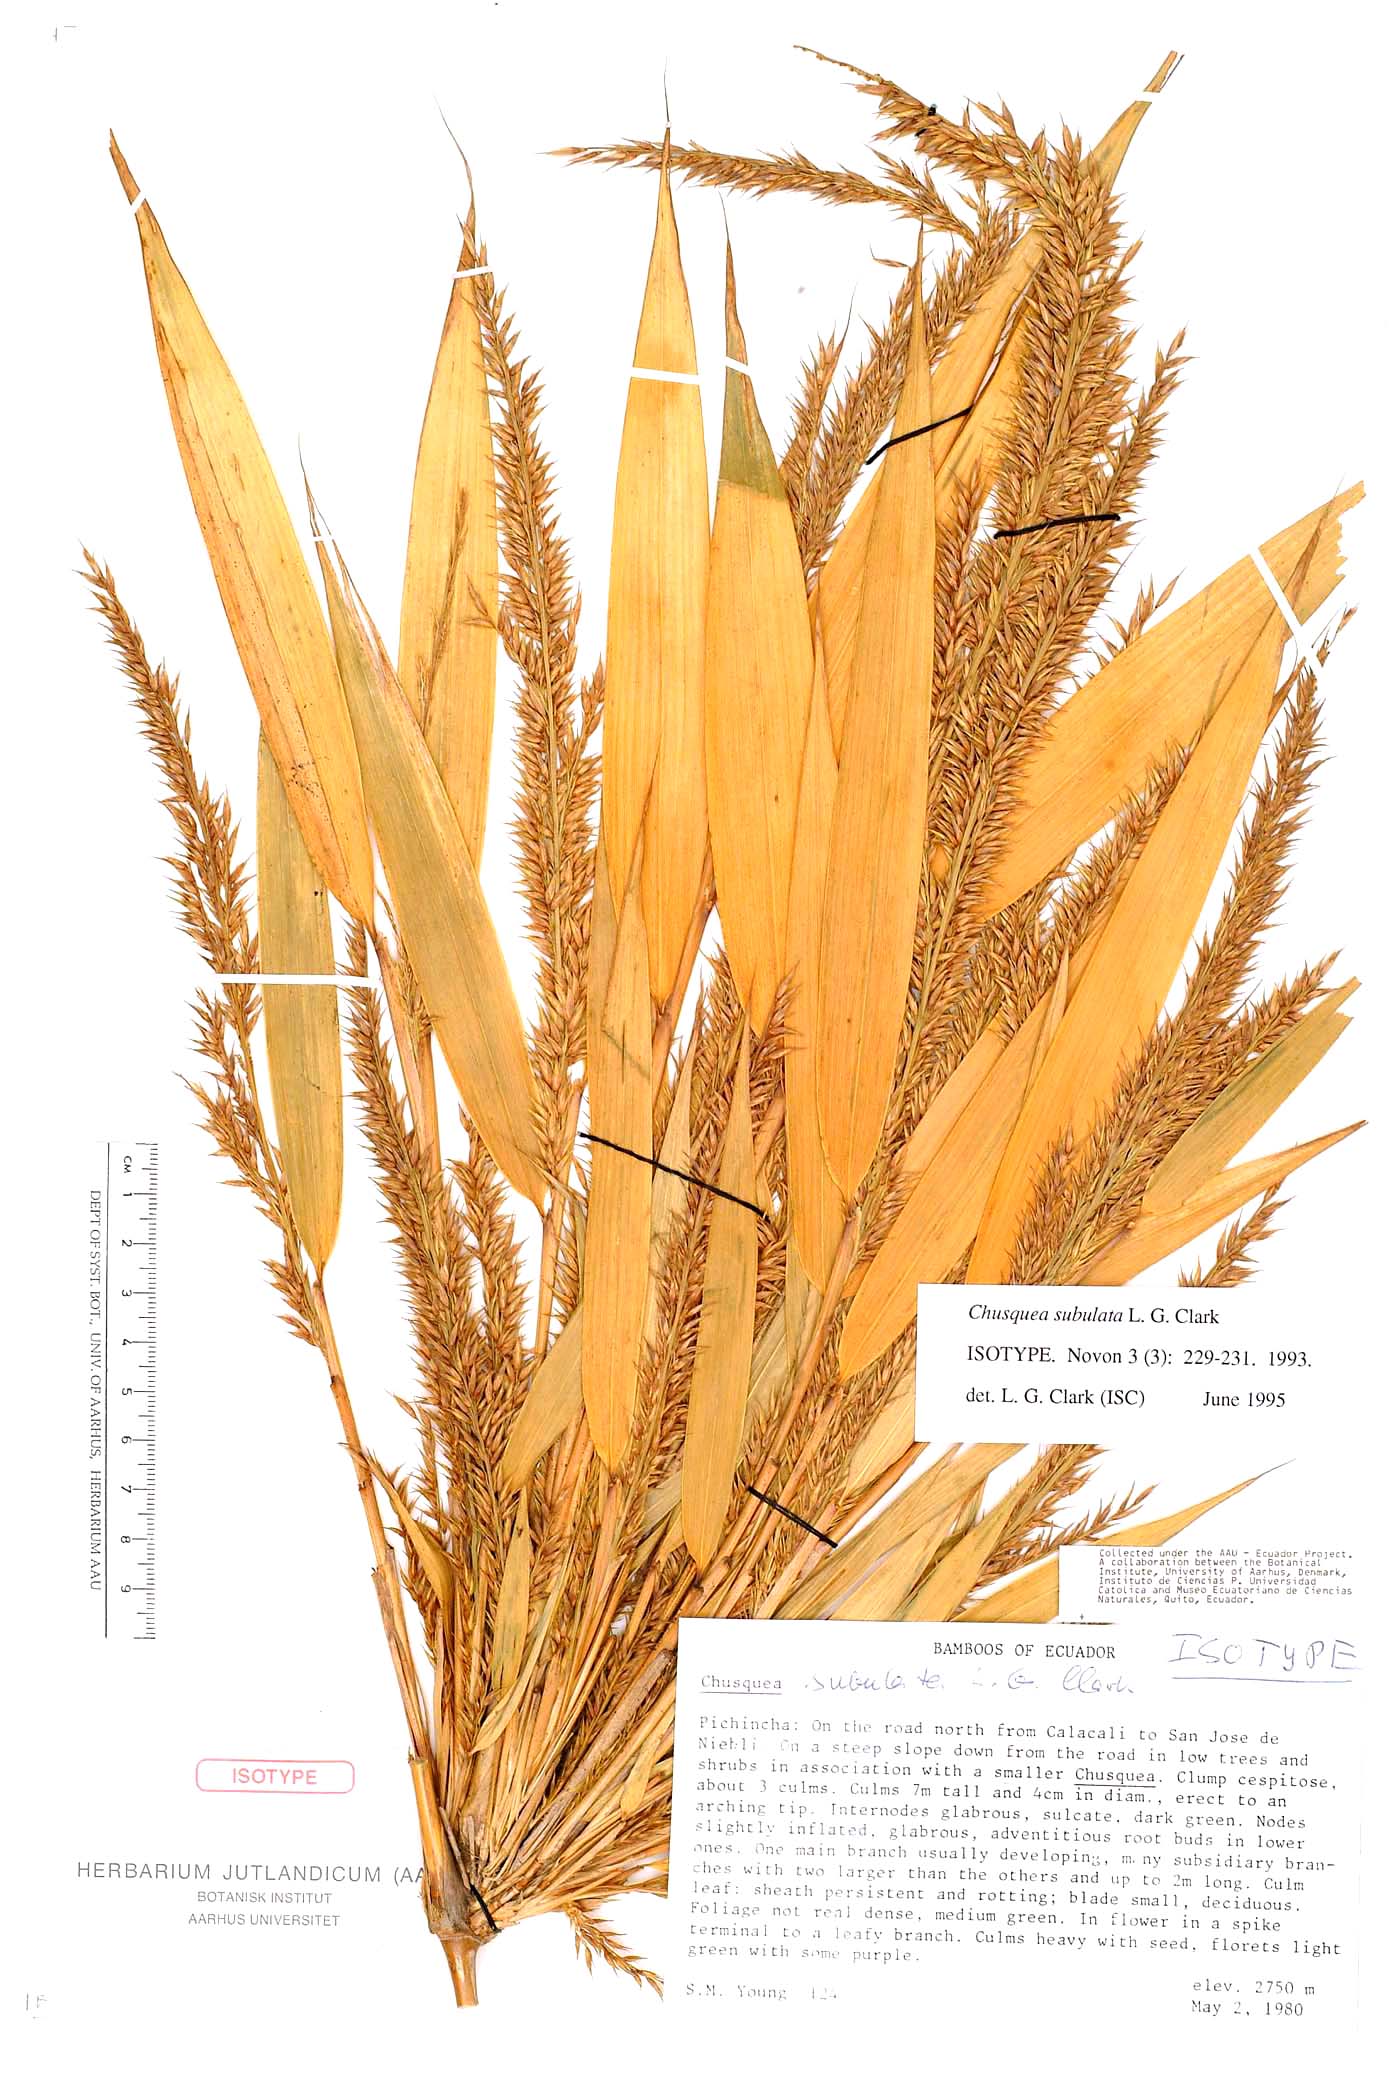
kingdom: Plantae
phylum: Tracheophyta
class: Liliopsida
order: Poales
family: Poaceae
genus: Chusquea
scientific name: Chusquea subulata
